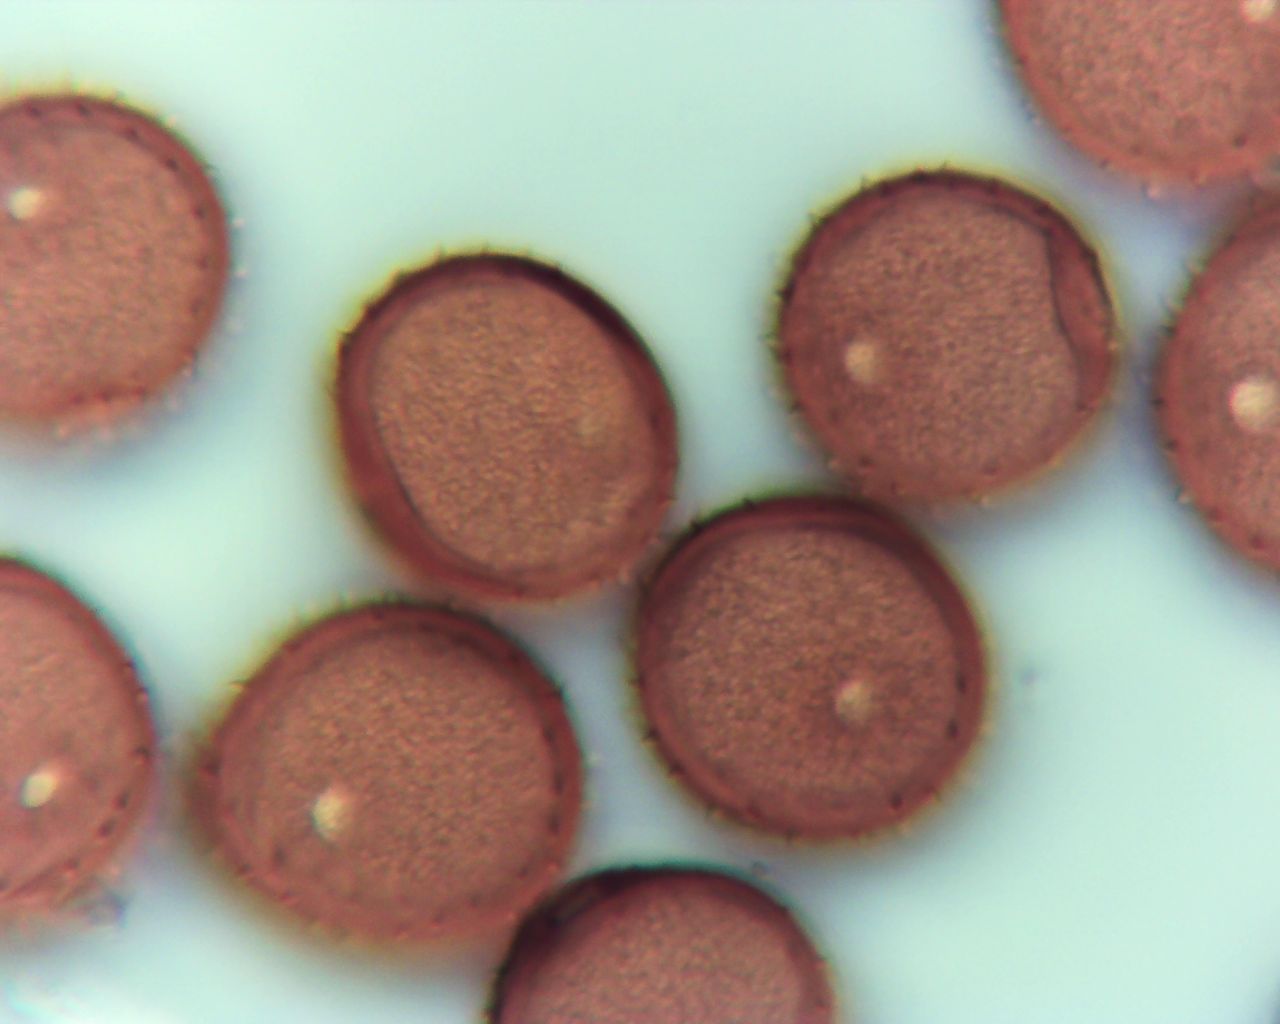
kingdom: Fungi
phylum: Basidiomycota
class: Pucciniomycetes
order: Pucciniales
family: Pucciniaceae
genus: Puccinia
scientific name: Puccinia hieracii
